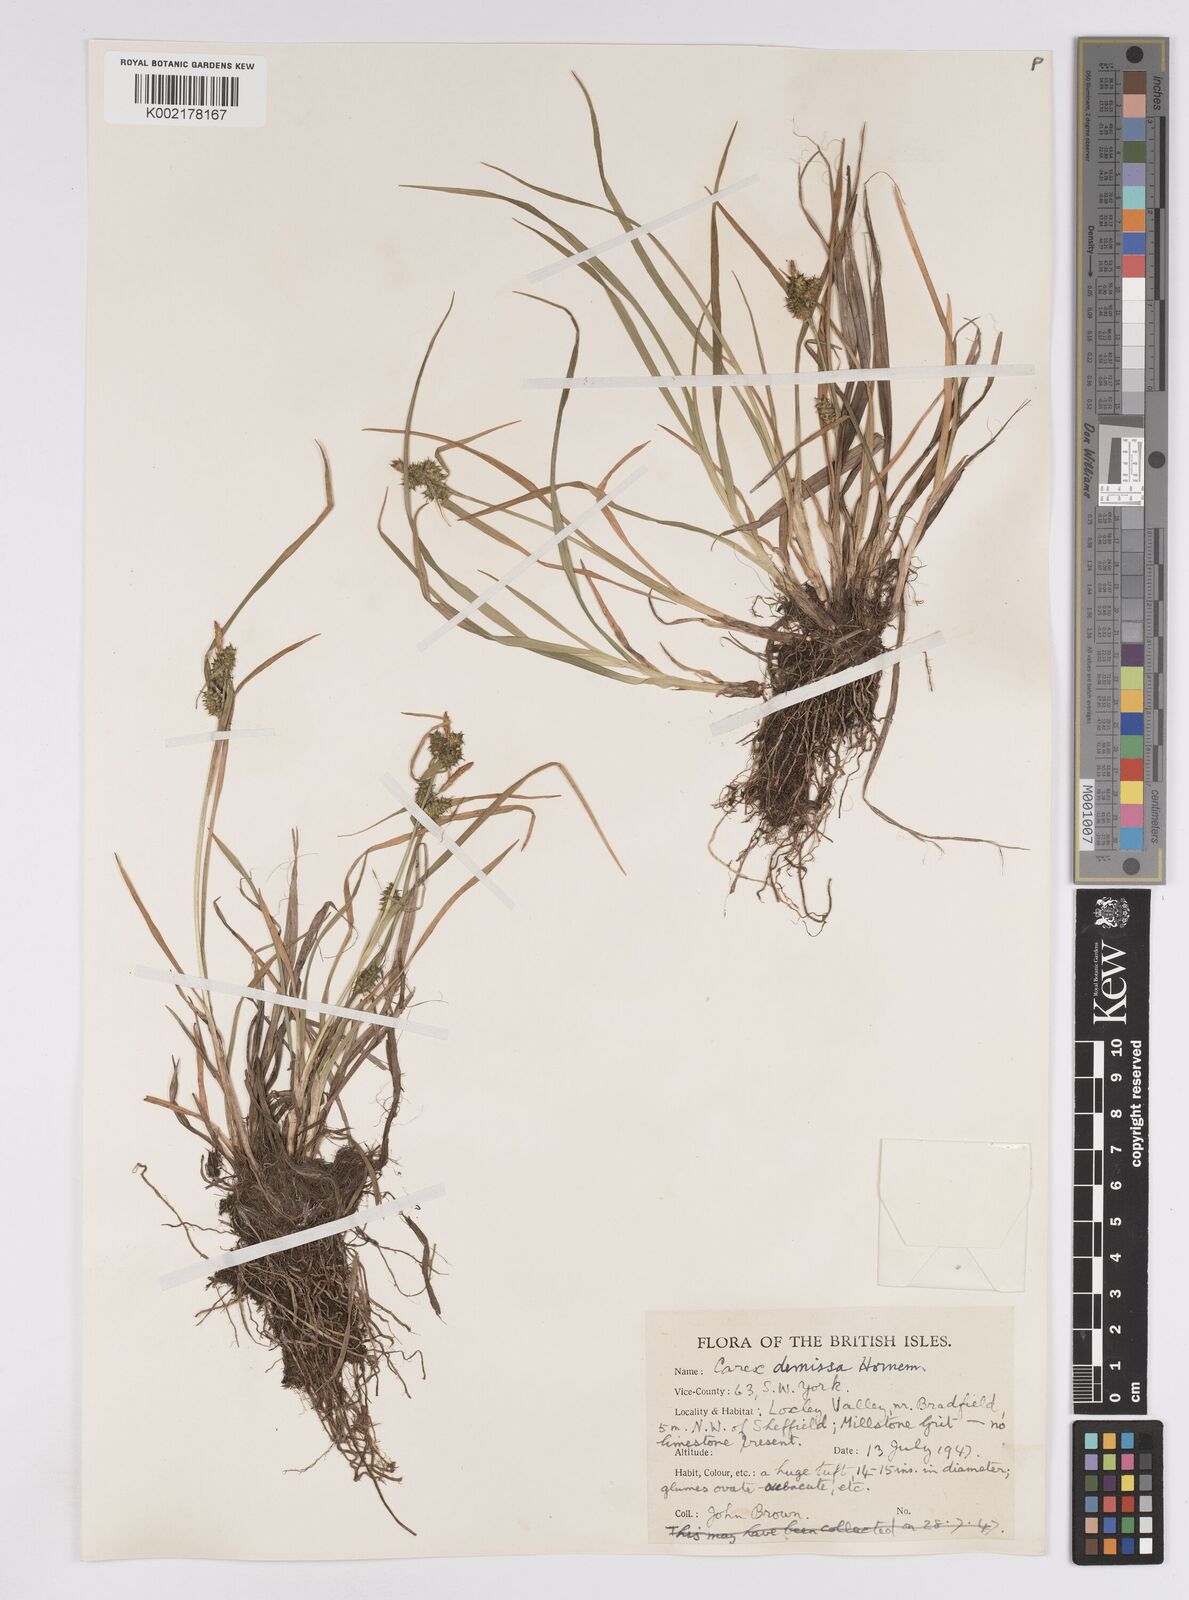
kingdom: Plantae
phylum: Tracheophyta
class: Liliopsida
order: Poales
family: Cyperaceae
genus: Carex
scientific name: Carex demissa
